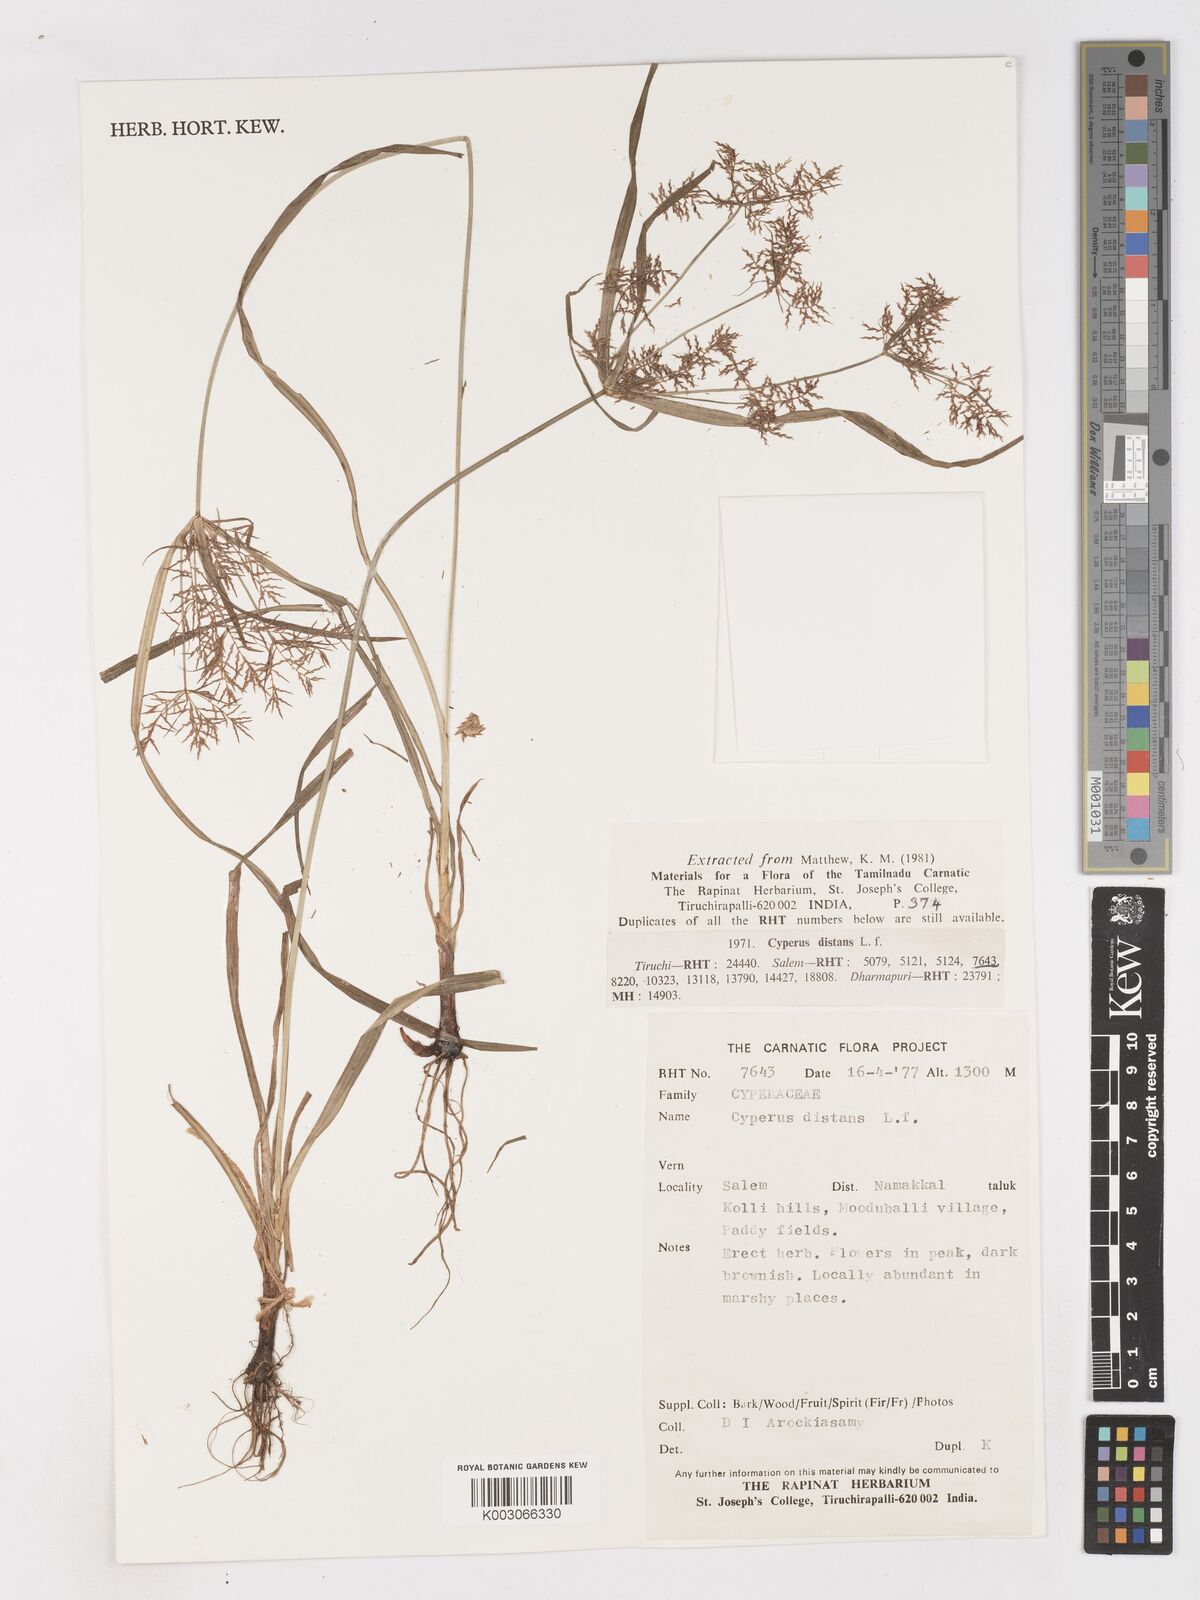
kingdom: Plantae
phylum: Tracheophyta
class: Liliopsida
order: Poales
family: Cyperaceae
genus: Cyperus
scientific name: Cyperus distans
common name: Slender cyperus
